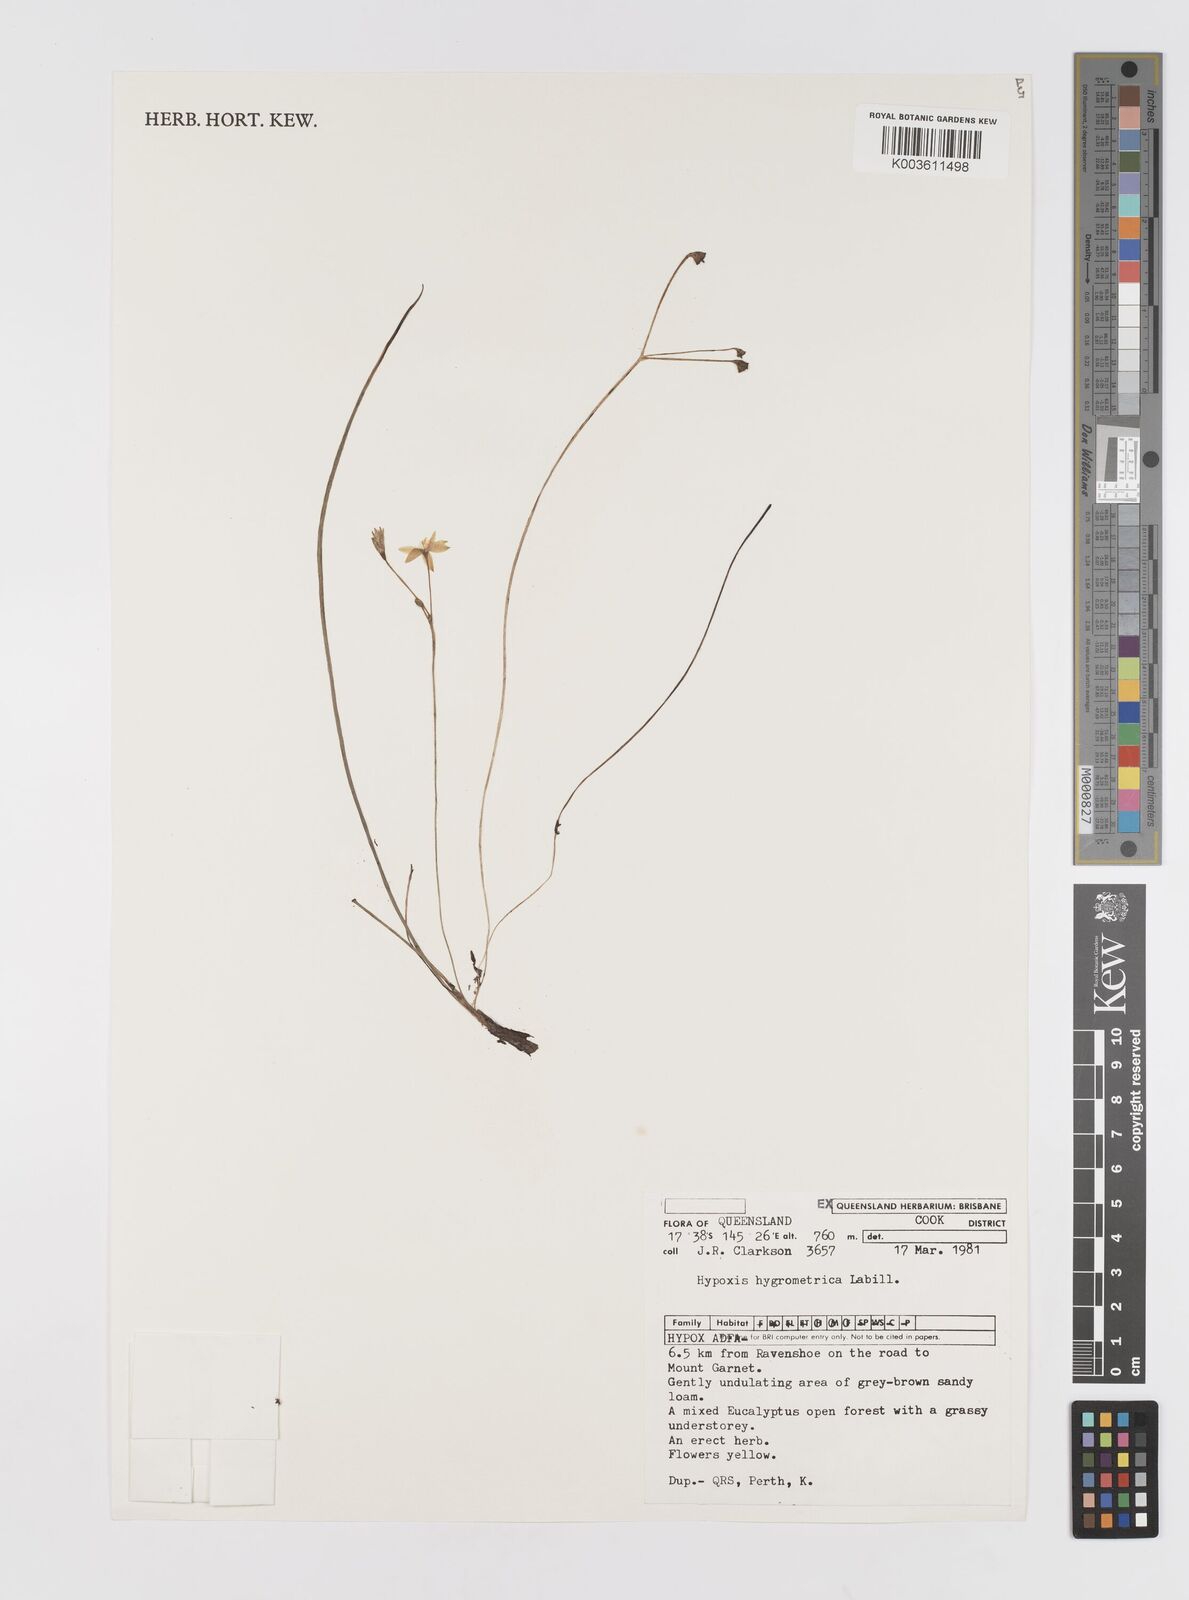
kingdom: Plantae
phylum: Tracheophyta
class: Liliopsida
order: Asparagales
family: Hypoxidaceae
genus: Hypoxis
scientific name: Hypoxis hygrometrica
